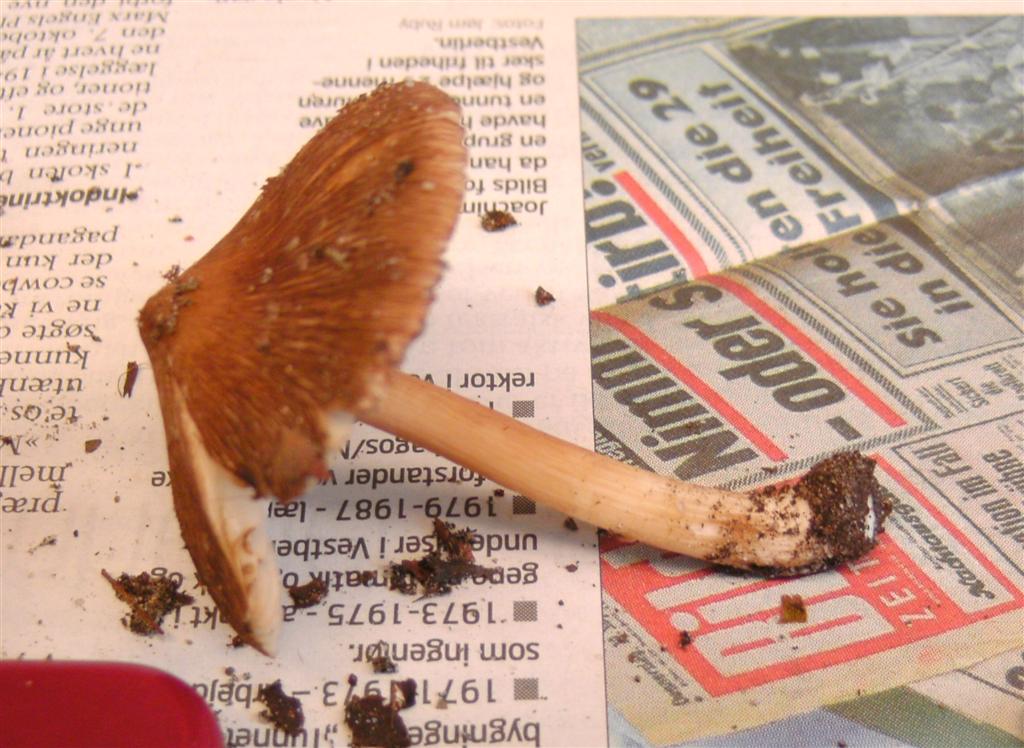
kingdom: Fungi
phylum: Basidiomycota
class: Agaricomycetes
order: Agaricales
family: Inocybaceae
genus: Inosperma
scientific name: Inosperma
